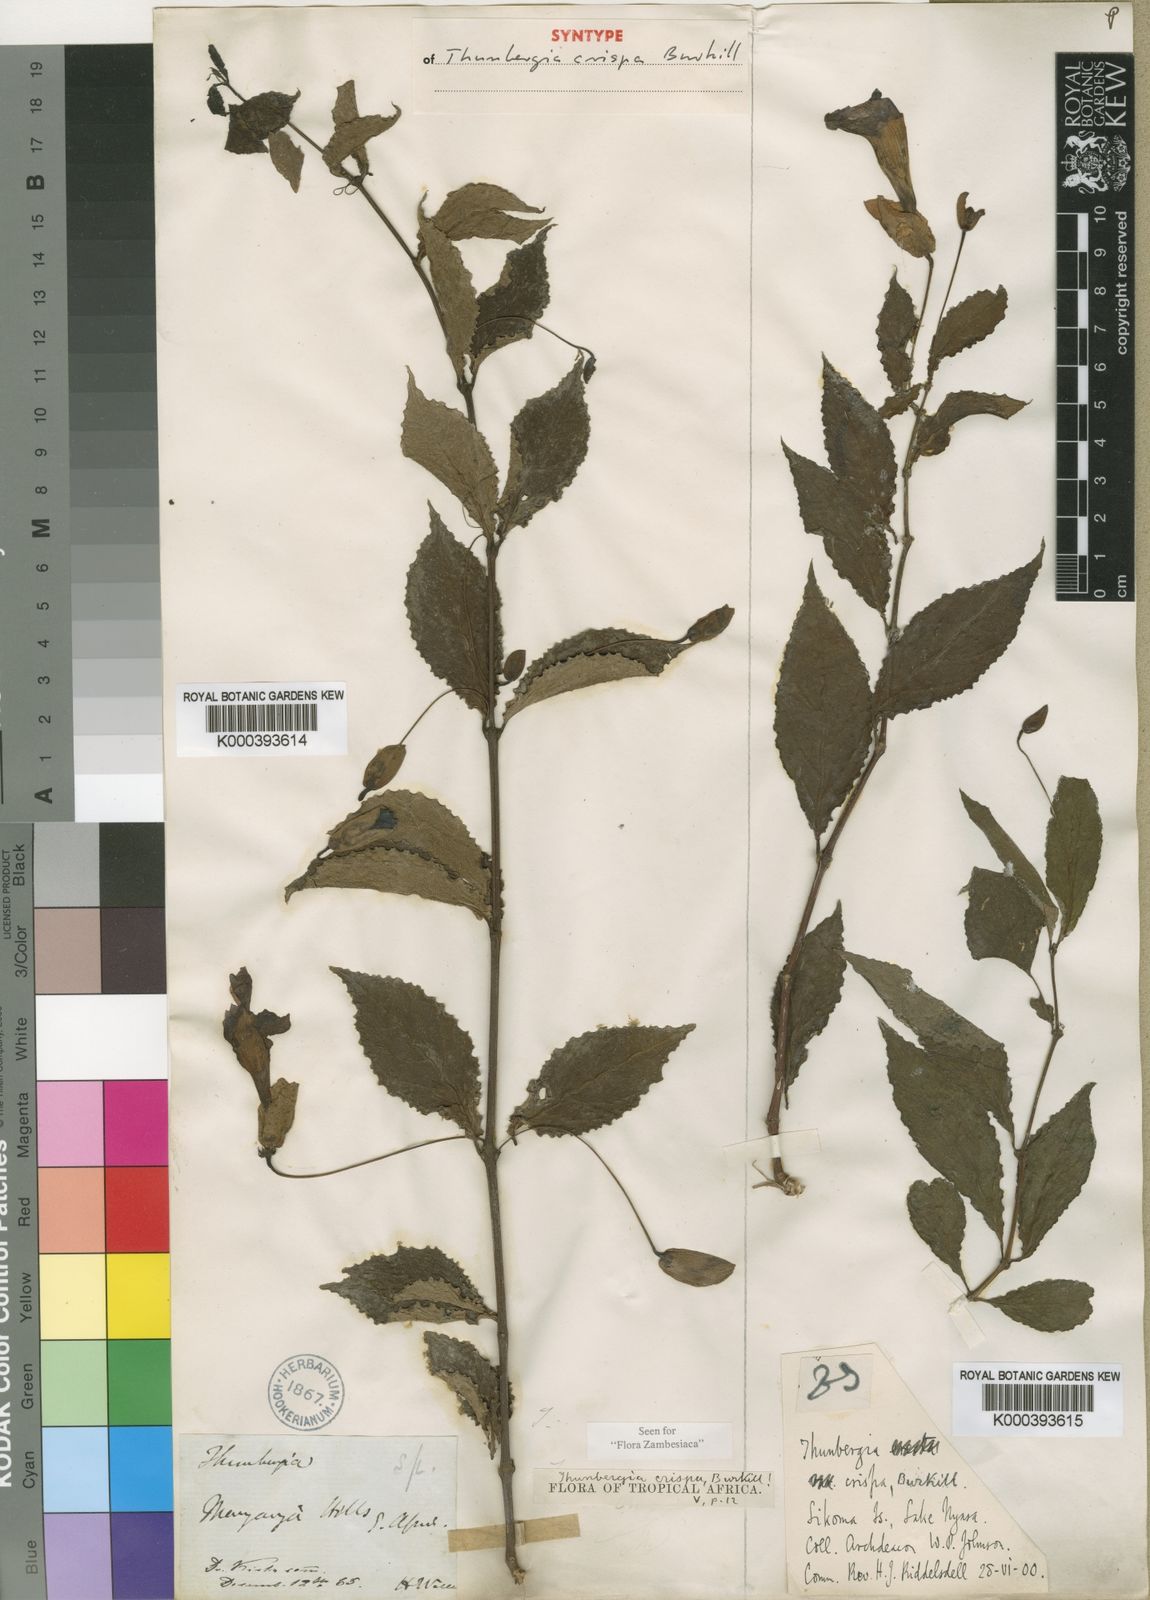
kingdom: Plantae
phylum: Tracheophyta
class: Magnoliopsida
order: Lamiales
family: Acanthaceae
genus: Thunbergia
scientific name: Thunbergia crispa
